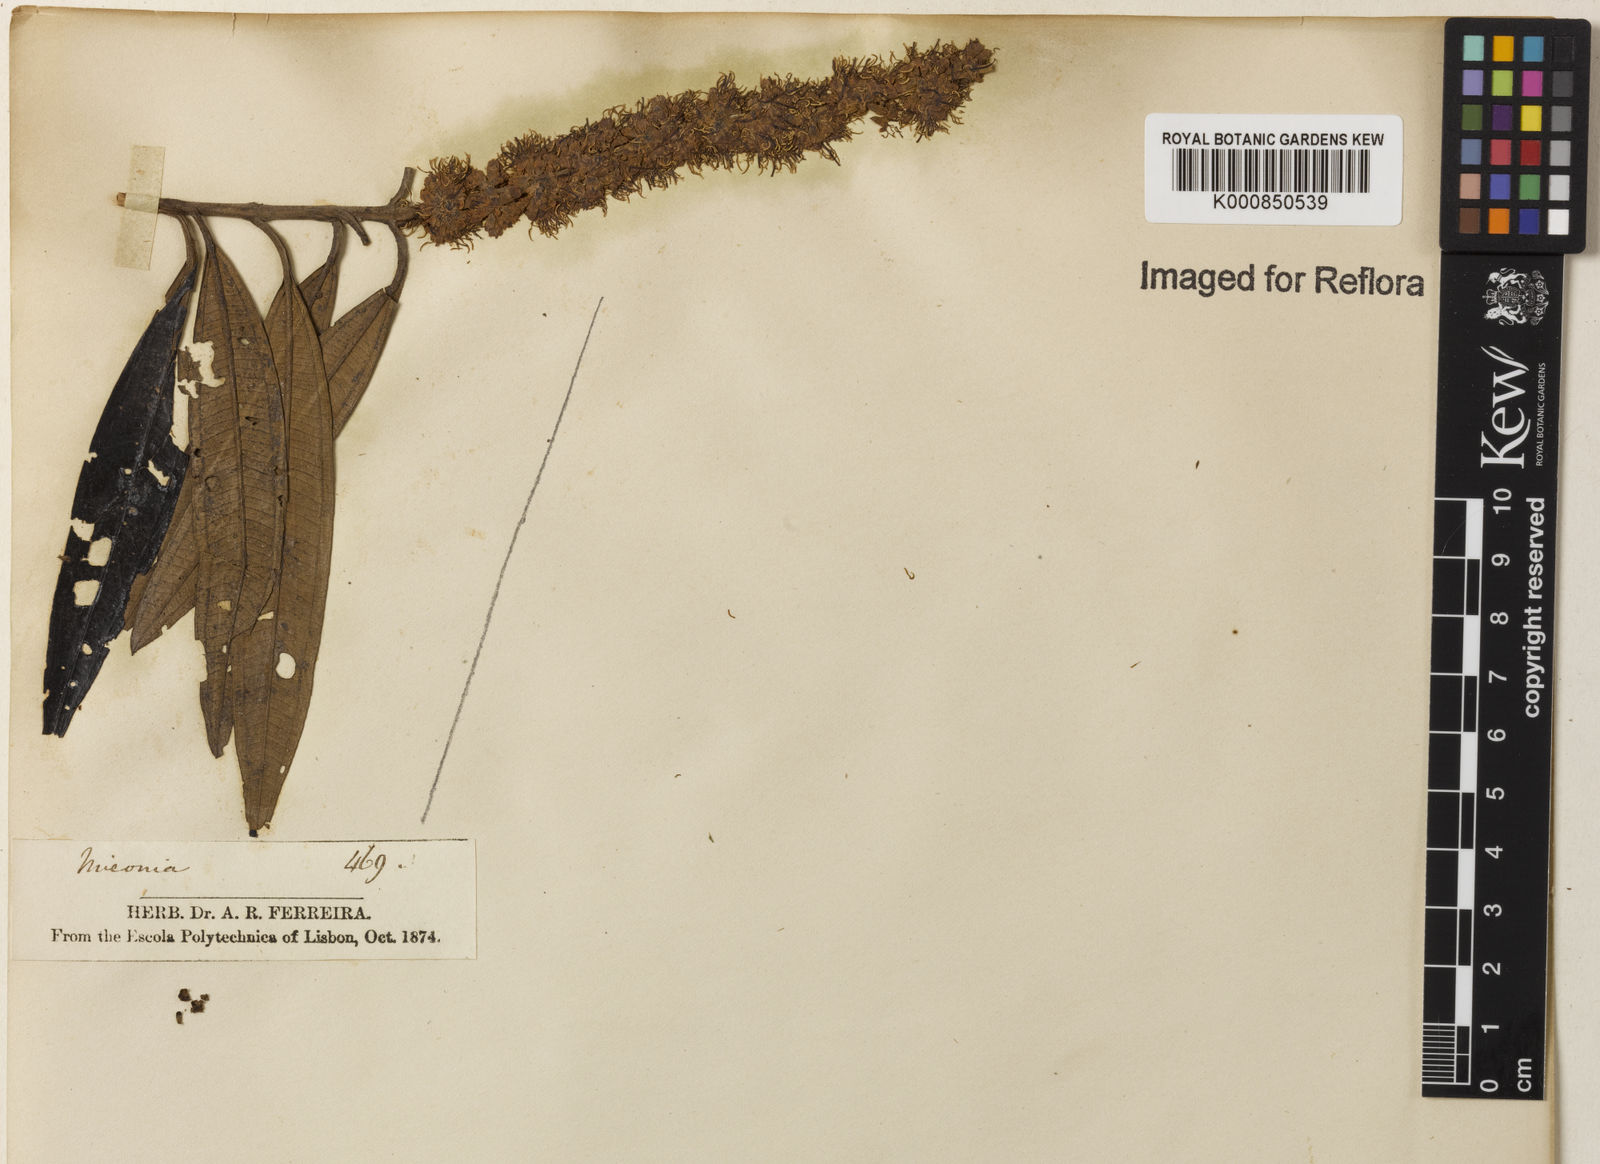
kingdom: Plantae
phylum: Tracheophyta
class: Magnoliopsida
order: Myrtales
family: Melastomataceae
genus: Miconia
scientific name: Miconia
